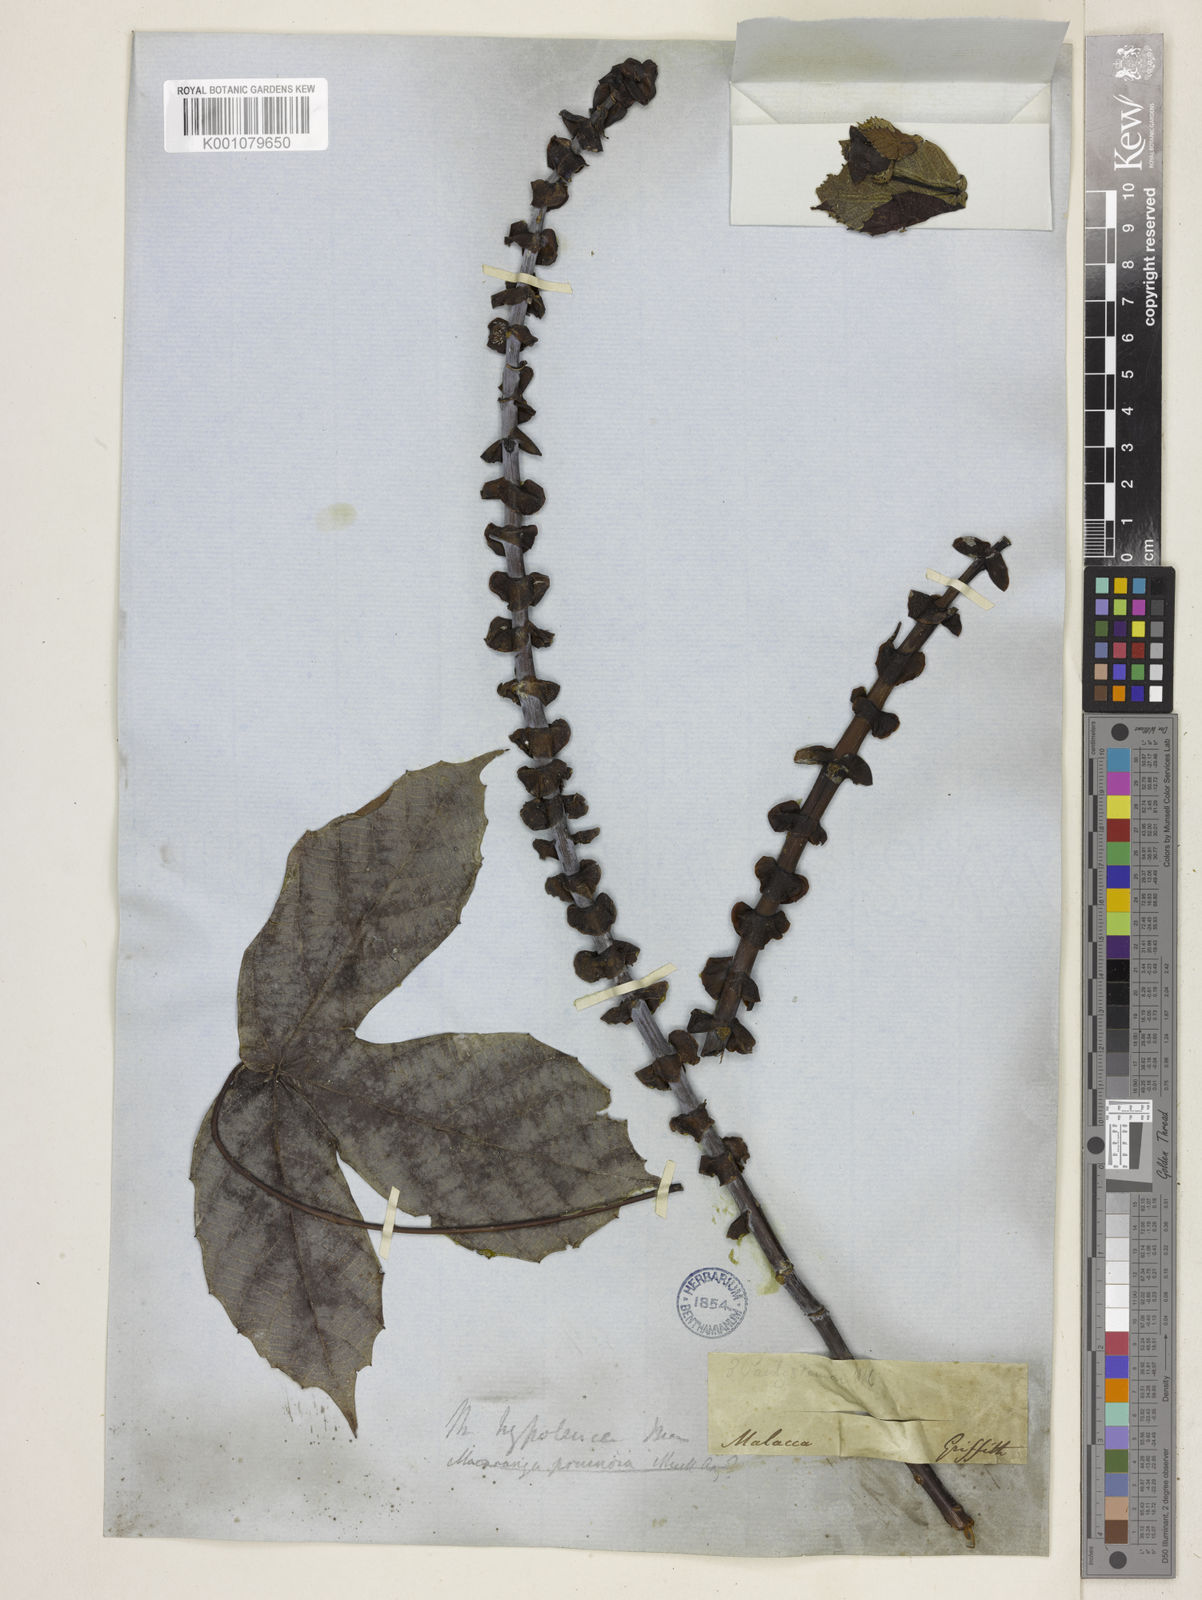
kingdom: Plantae
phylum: Tracheophyta
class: Magnoliopsida
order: Malpighiales
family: Euphorbiaceae
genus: Macaranga
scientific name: Macaranga
